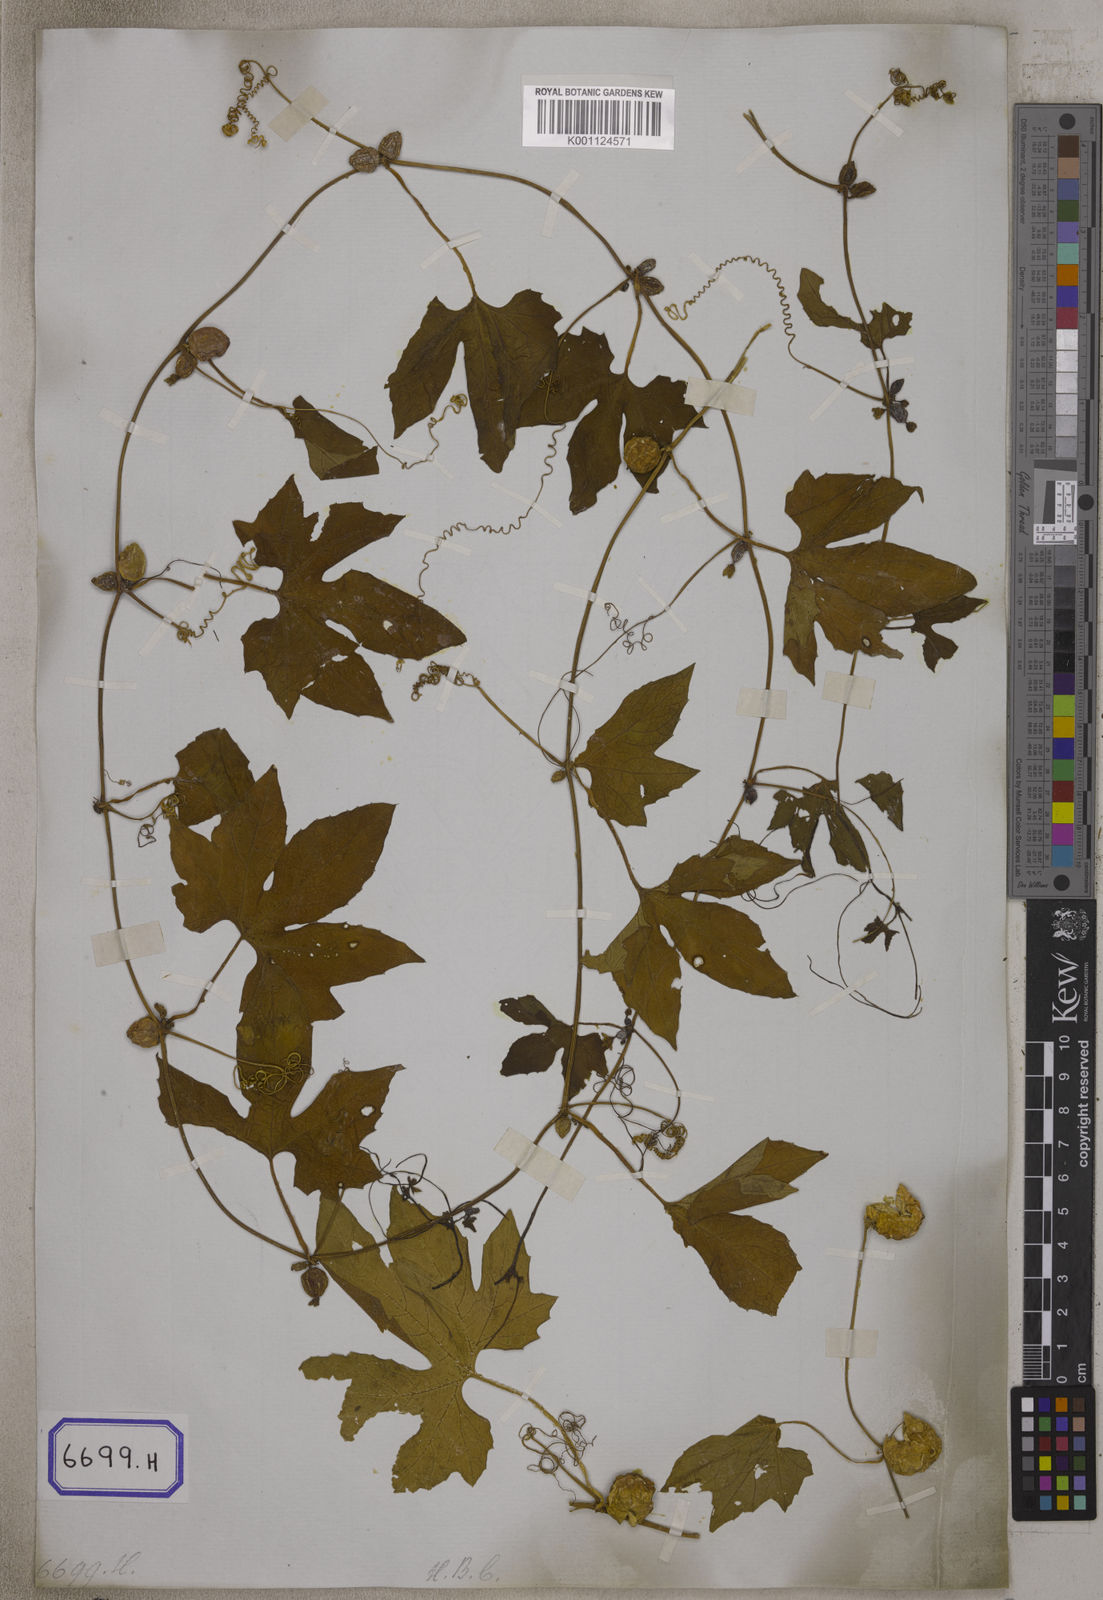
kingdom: Plantae
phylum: Tracheophyta
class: Magnoliopsida
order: Cucurbitales
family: Cucurbitaceae
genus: Diplocyclos
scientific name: Diplocyclos palmatus
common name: Striped-cucumber
